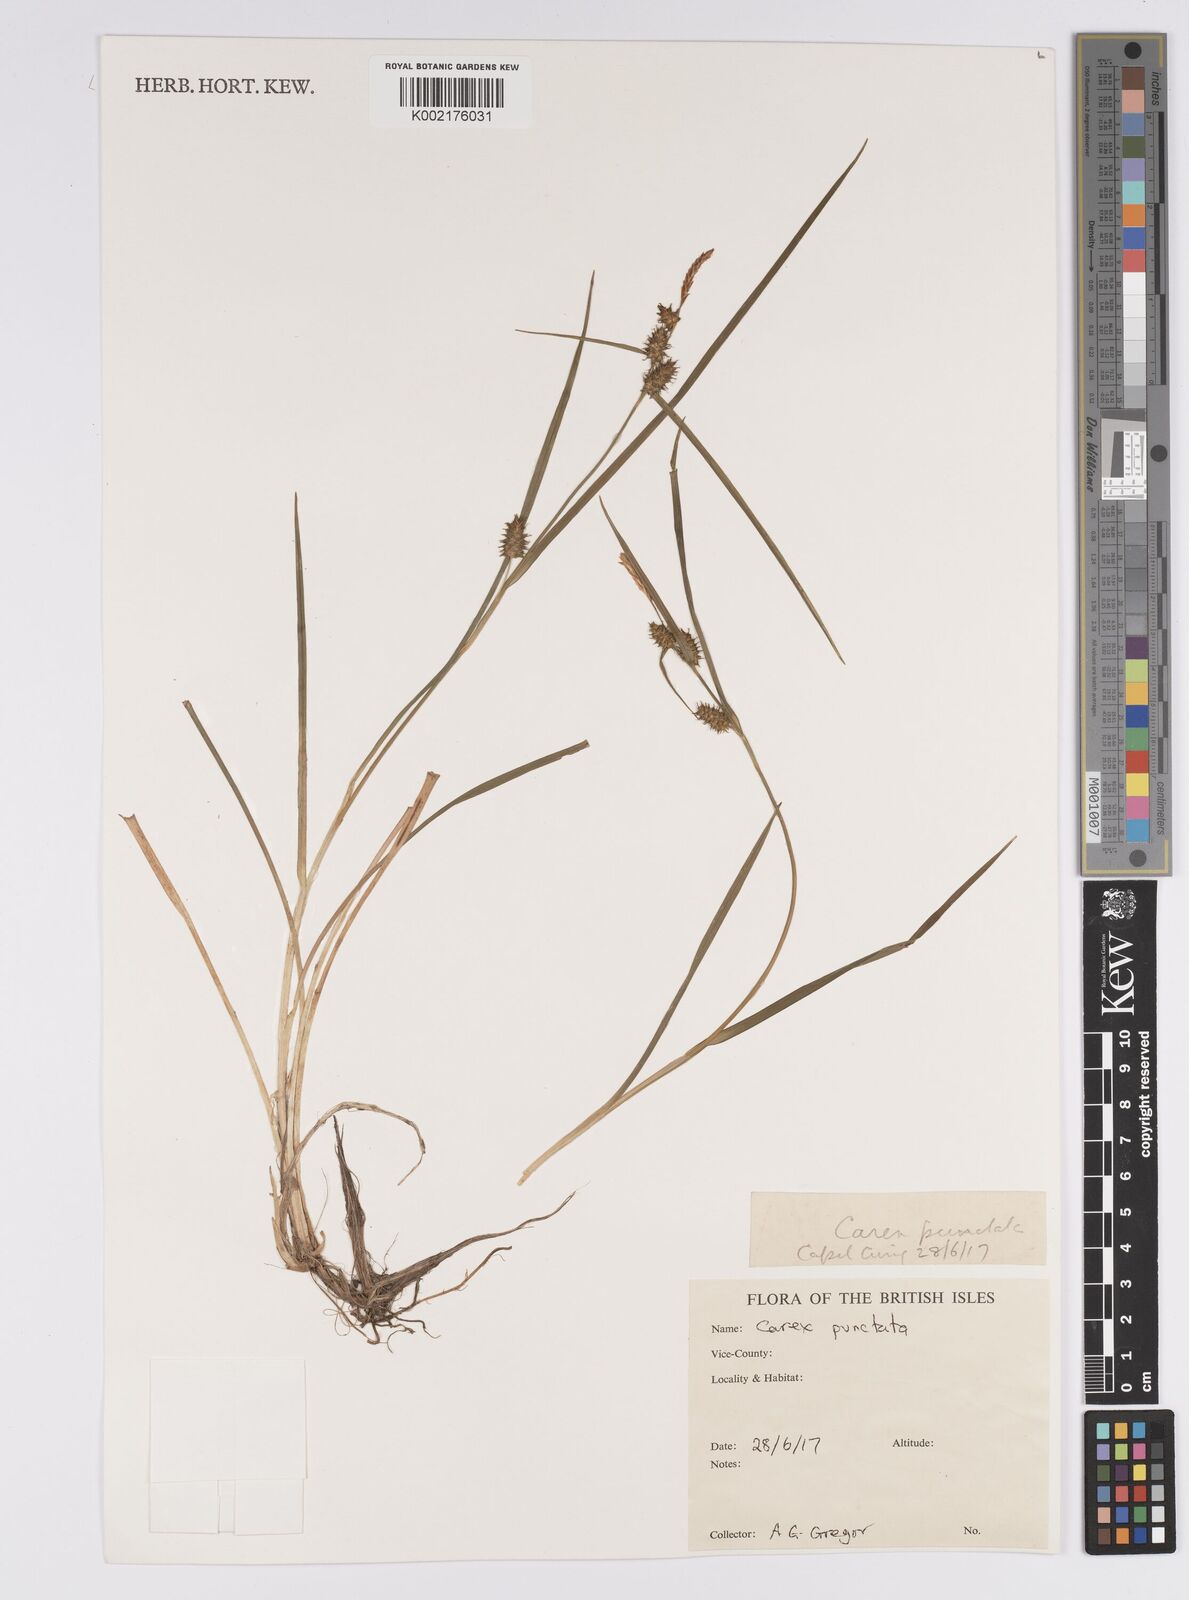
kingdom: Plantae
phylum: Tracheophyta
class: Liliopsida
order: Poales
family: Cyperaceae
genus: Carex
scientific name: Carex punctata
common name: Dotted sedge
